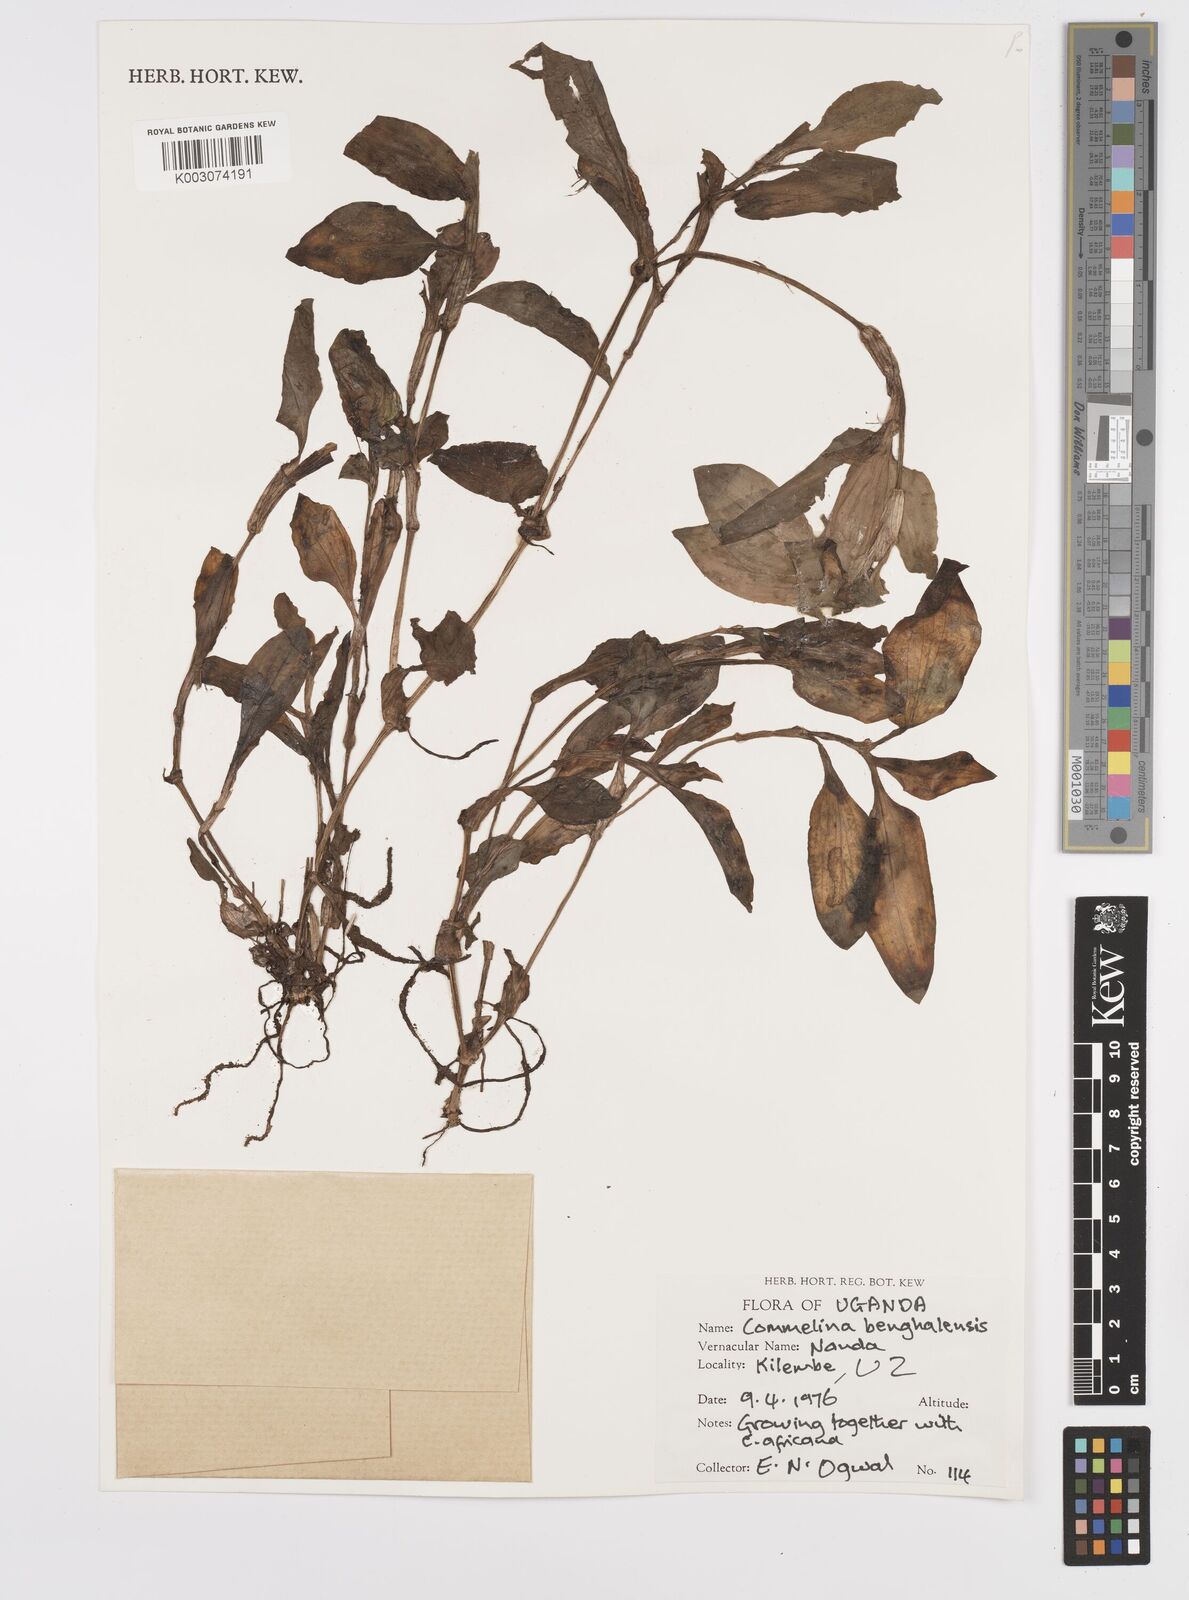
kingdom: Plantae
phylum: Tracheophyta
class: Liliopsida
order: Commelinales
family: Commelinaceae
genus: Commelina
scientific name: Commelina benghalensis
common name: Jio
